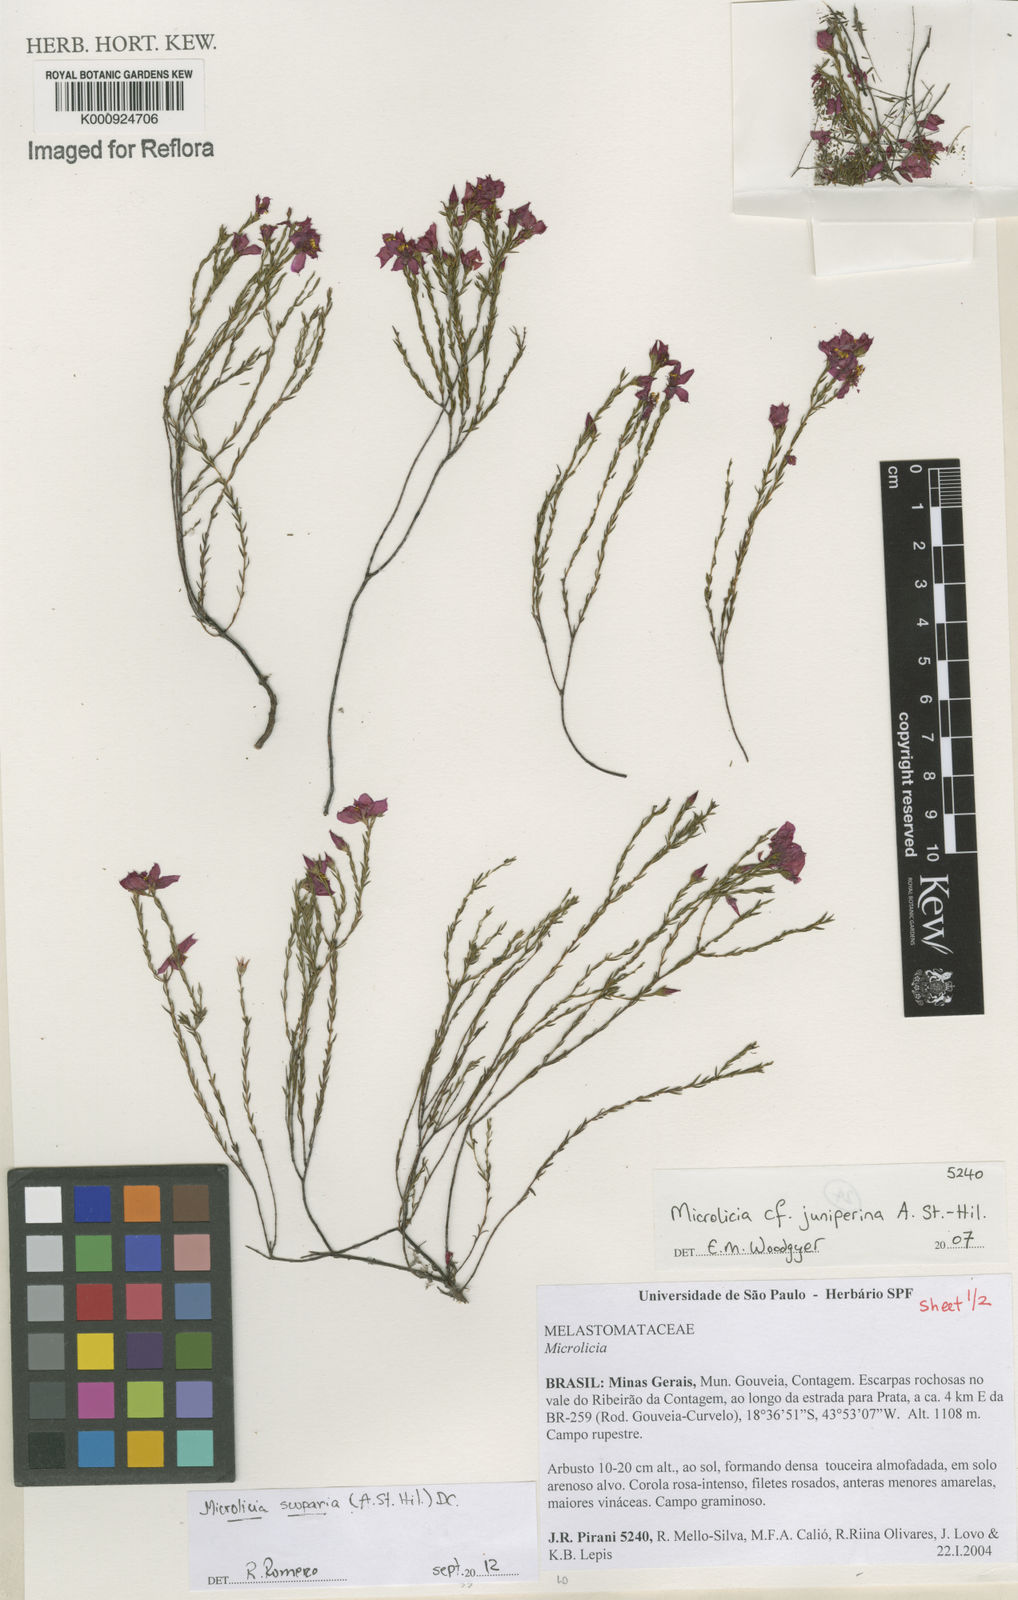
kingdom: Plantae
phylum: Tracheophyta
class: Magnoliopsida
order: Myrtales
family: Melastomataceae
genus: Microlicia
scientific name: Microlicia scoparia
